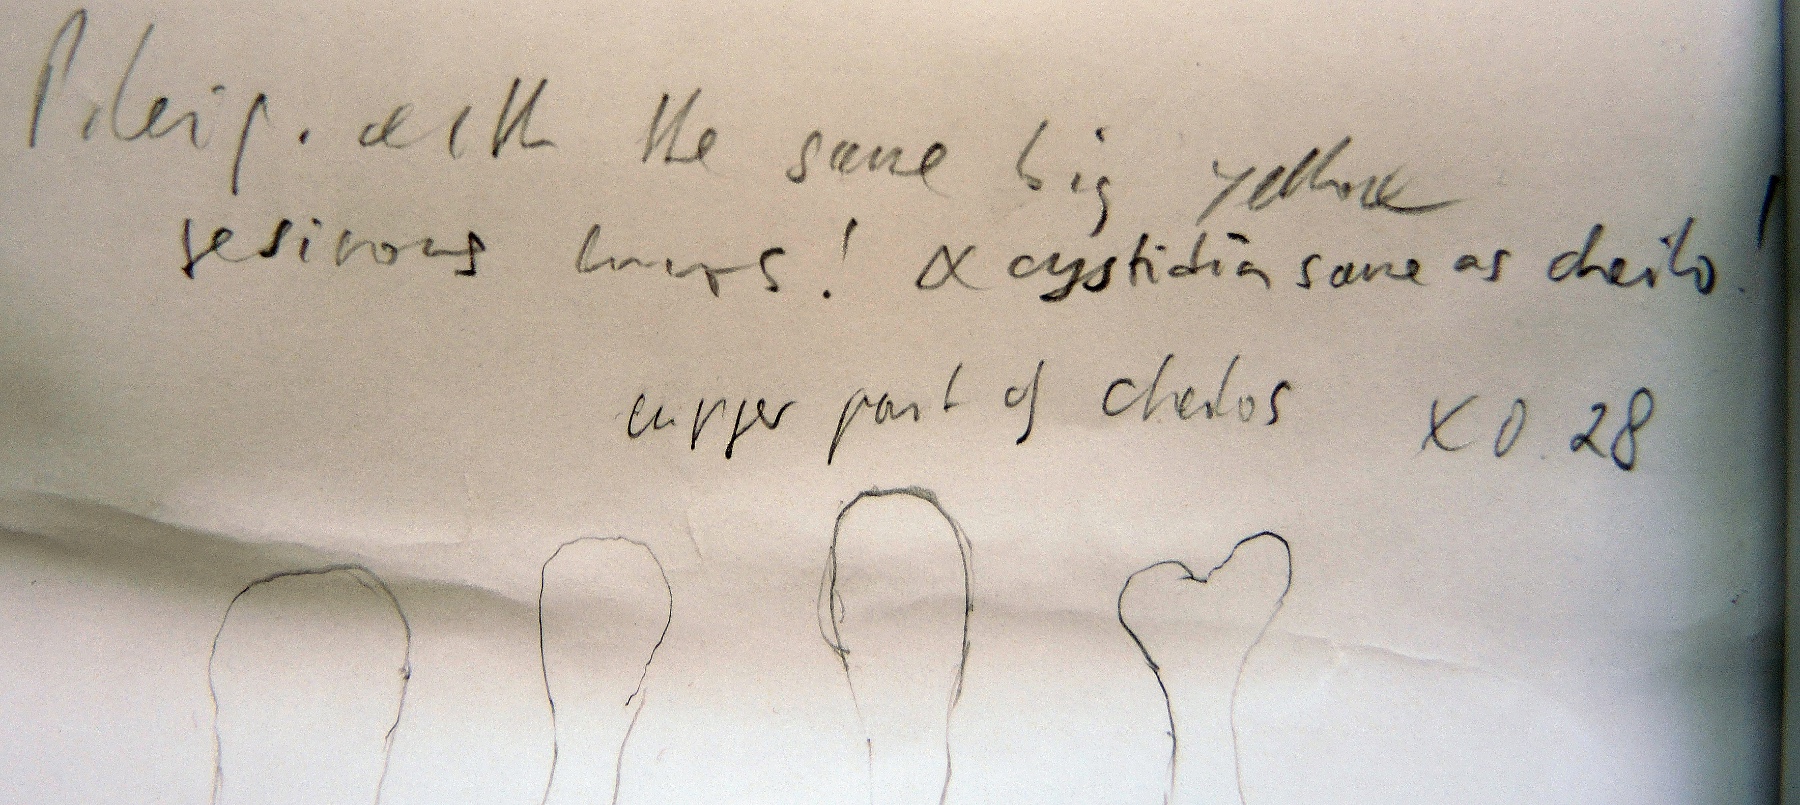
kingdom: Fungi
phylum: Basidiomycota
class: Agaricomycetes
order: Agaricales
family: Mycenaceae
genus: Hemimycena
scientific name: Hemimycena lactea
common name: mælkehvid huesvamp
